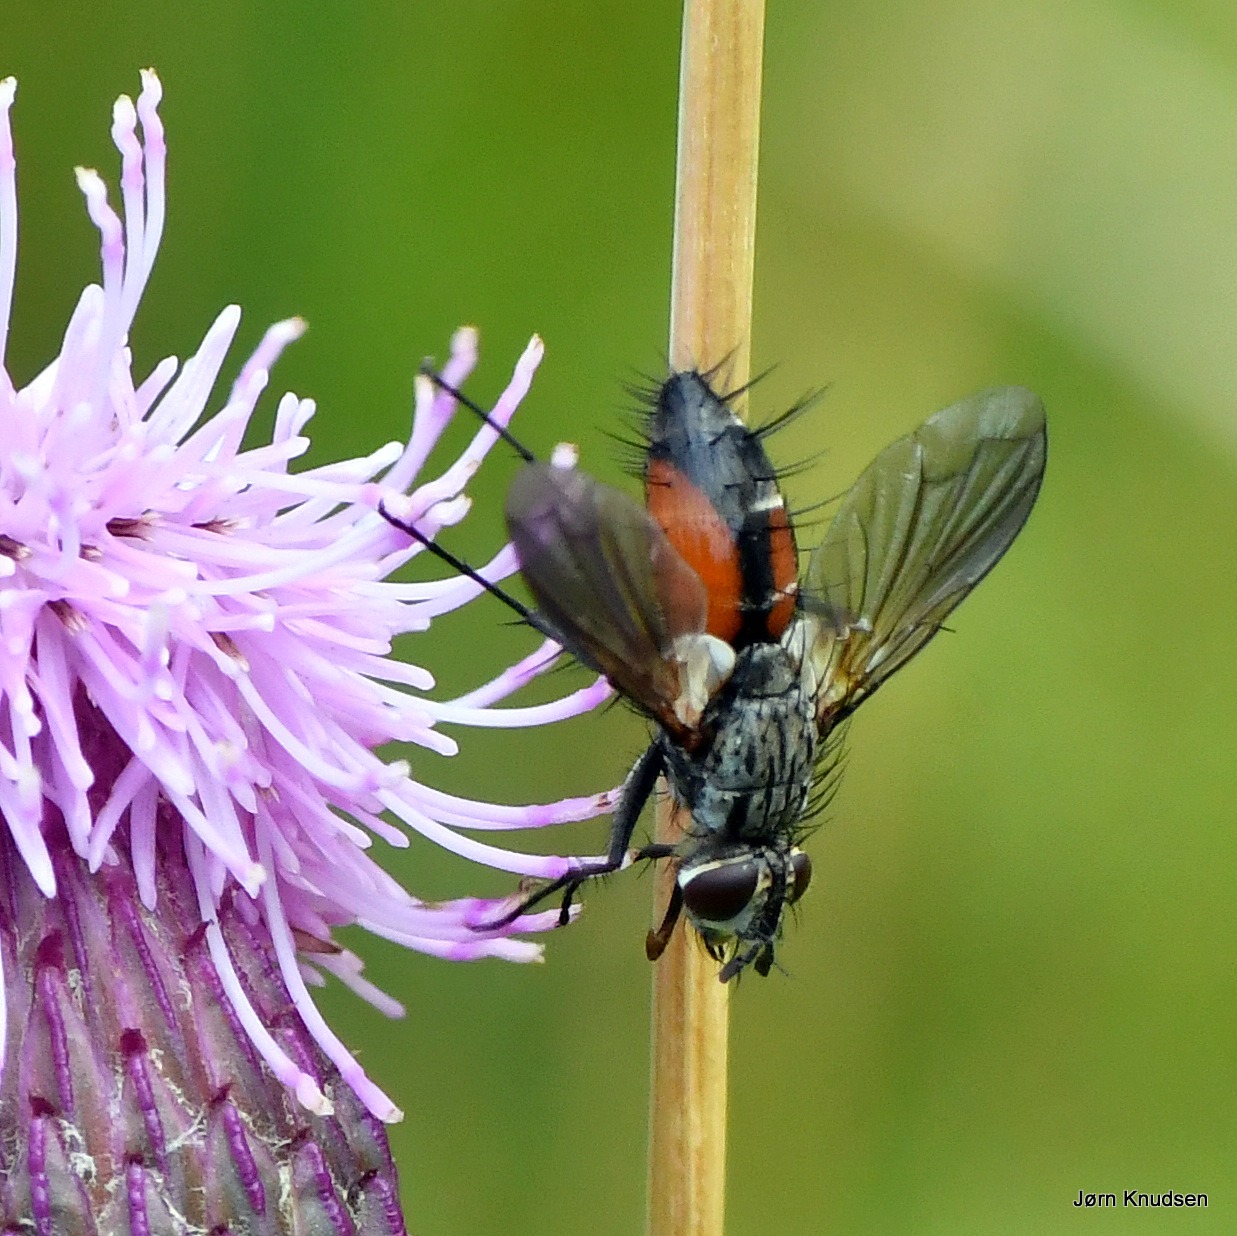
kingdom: Animalia
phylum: Arthropoda
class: Insecta
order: Diptera
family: Tachinidae
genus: Eriothrix
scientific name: Eriothrix rufomaculatus
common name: Rød snylteflue
